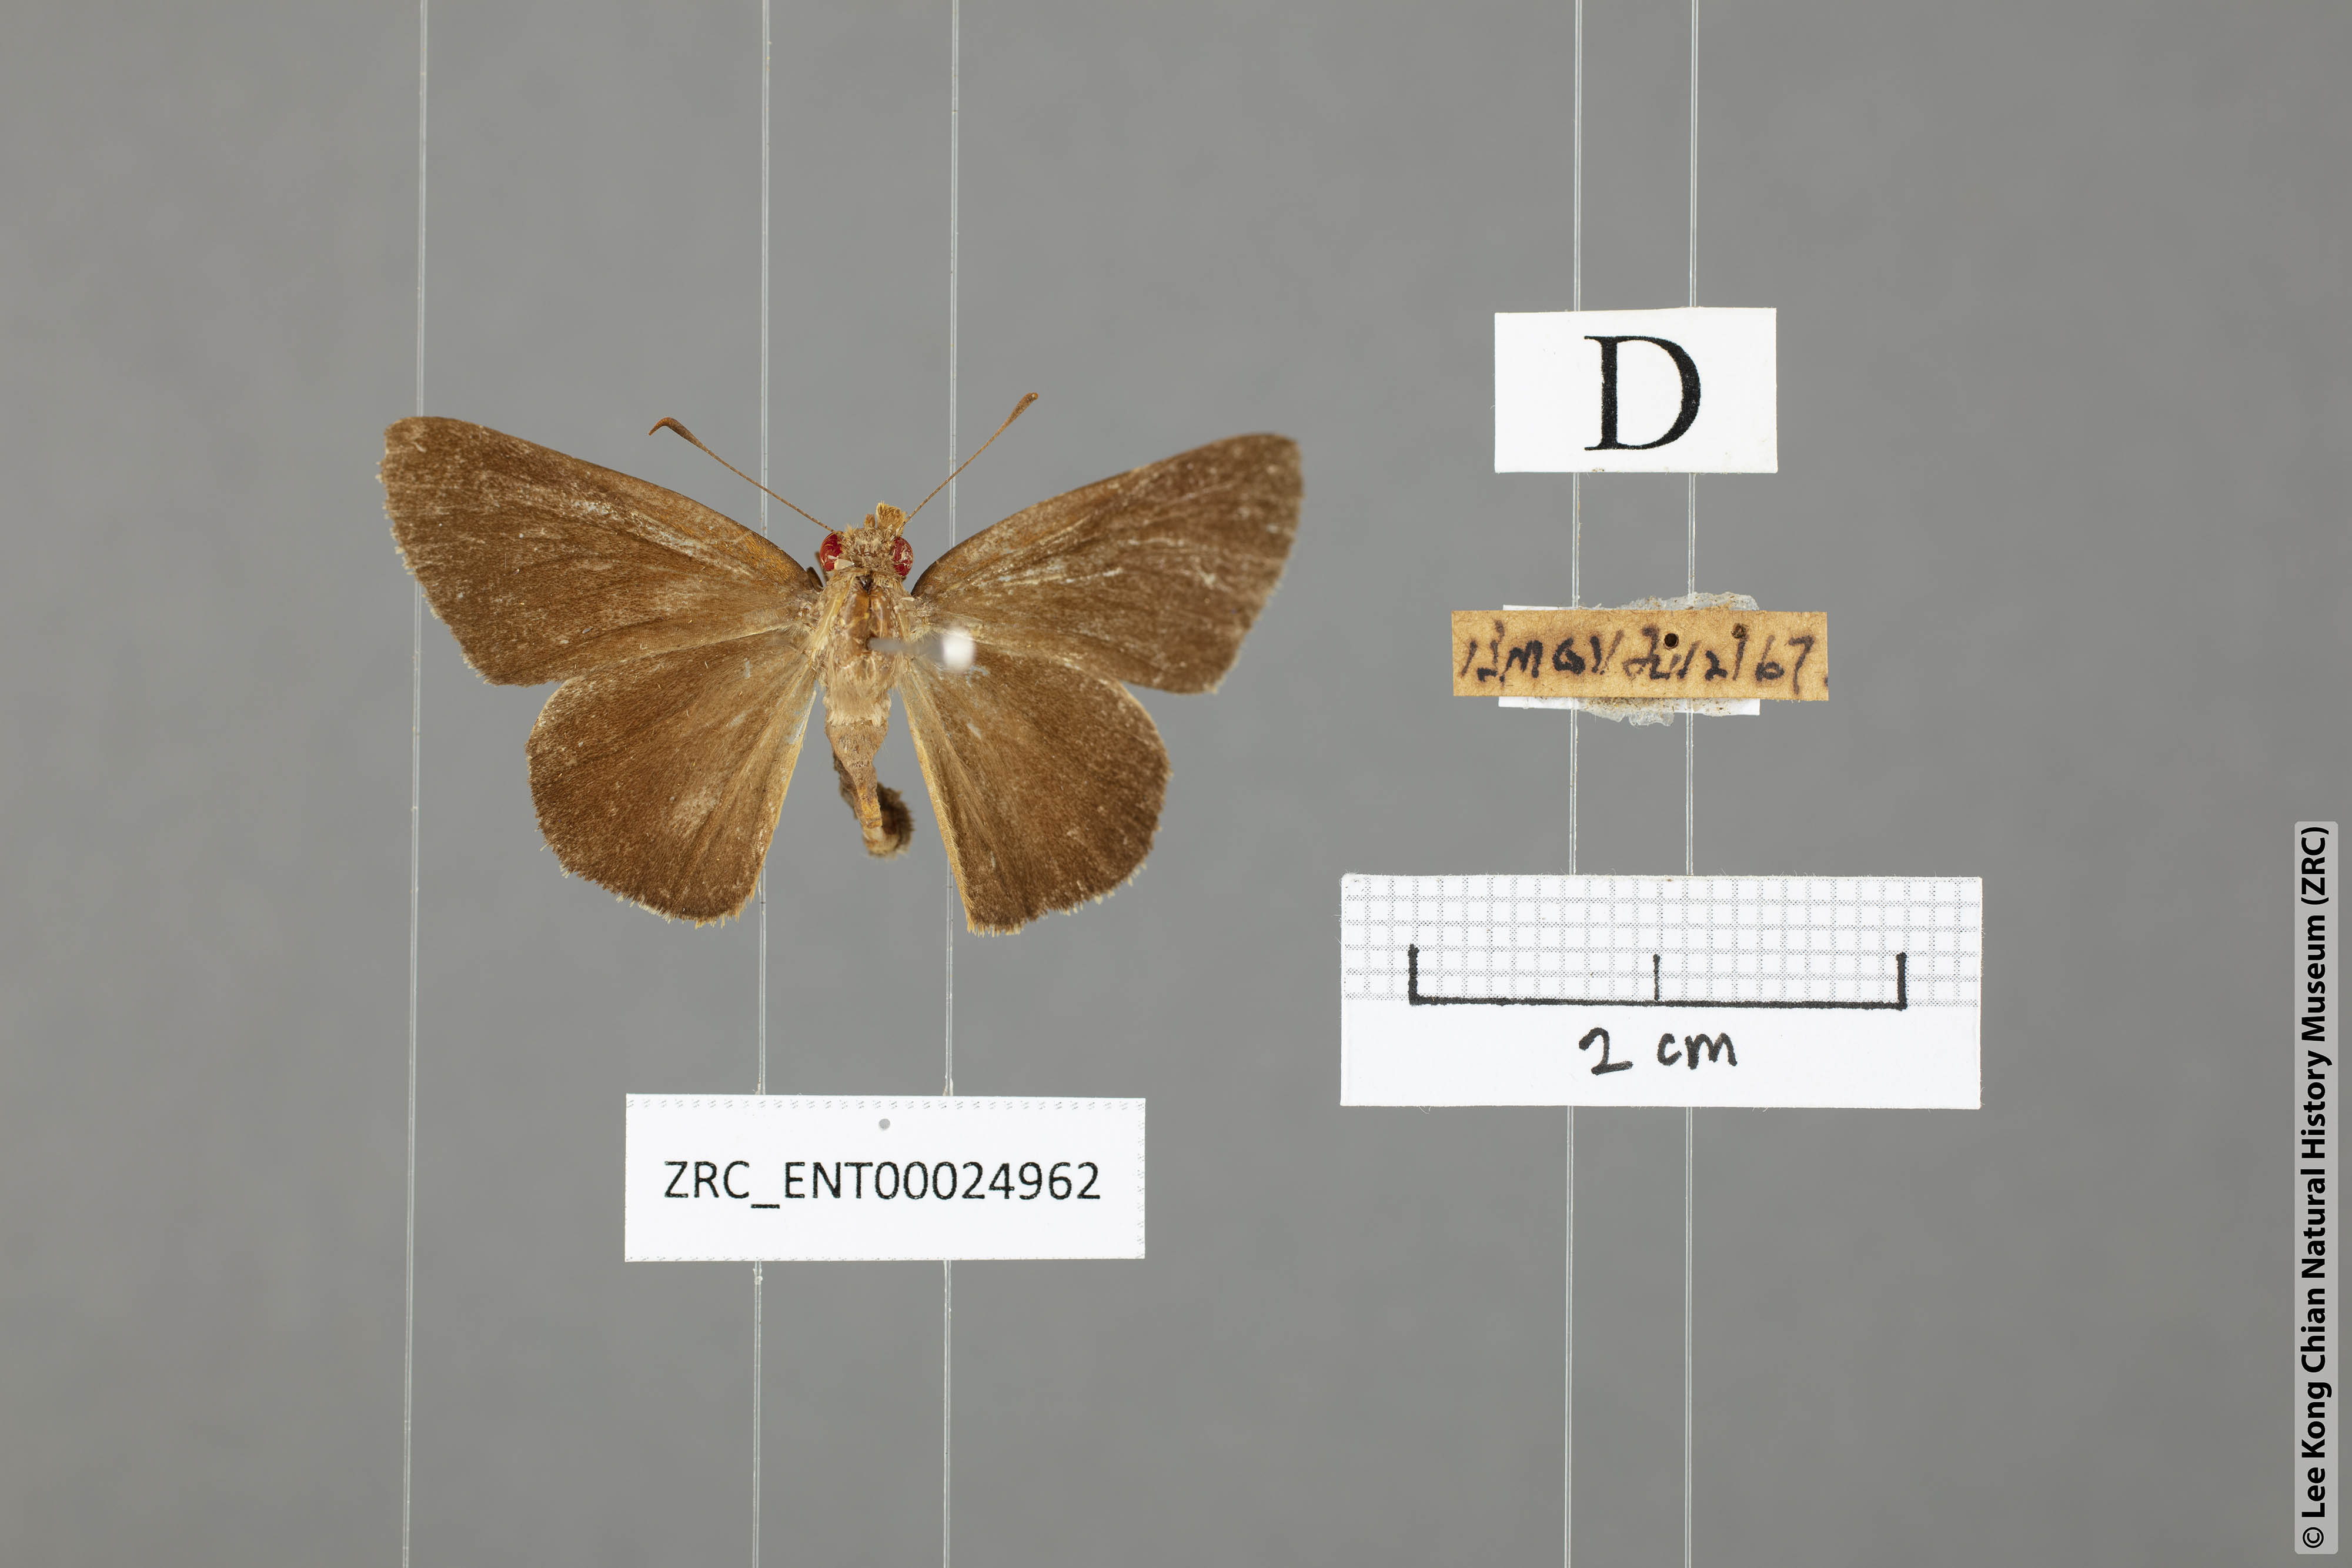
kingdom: Animalia
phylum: Arthropoda
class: Insecta
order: Lepidoptera
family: Hesperiidae
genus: Matapa
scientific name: Matapa aria
